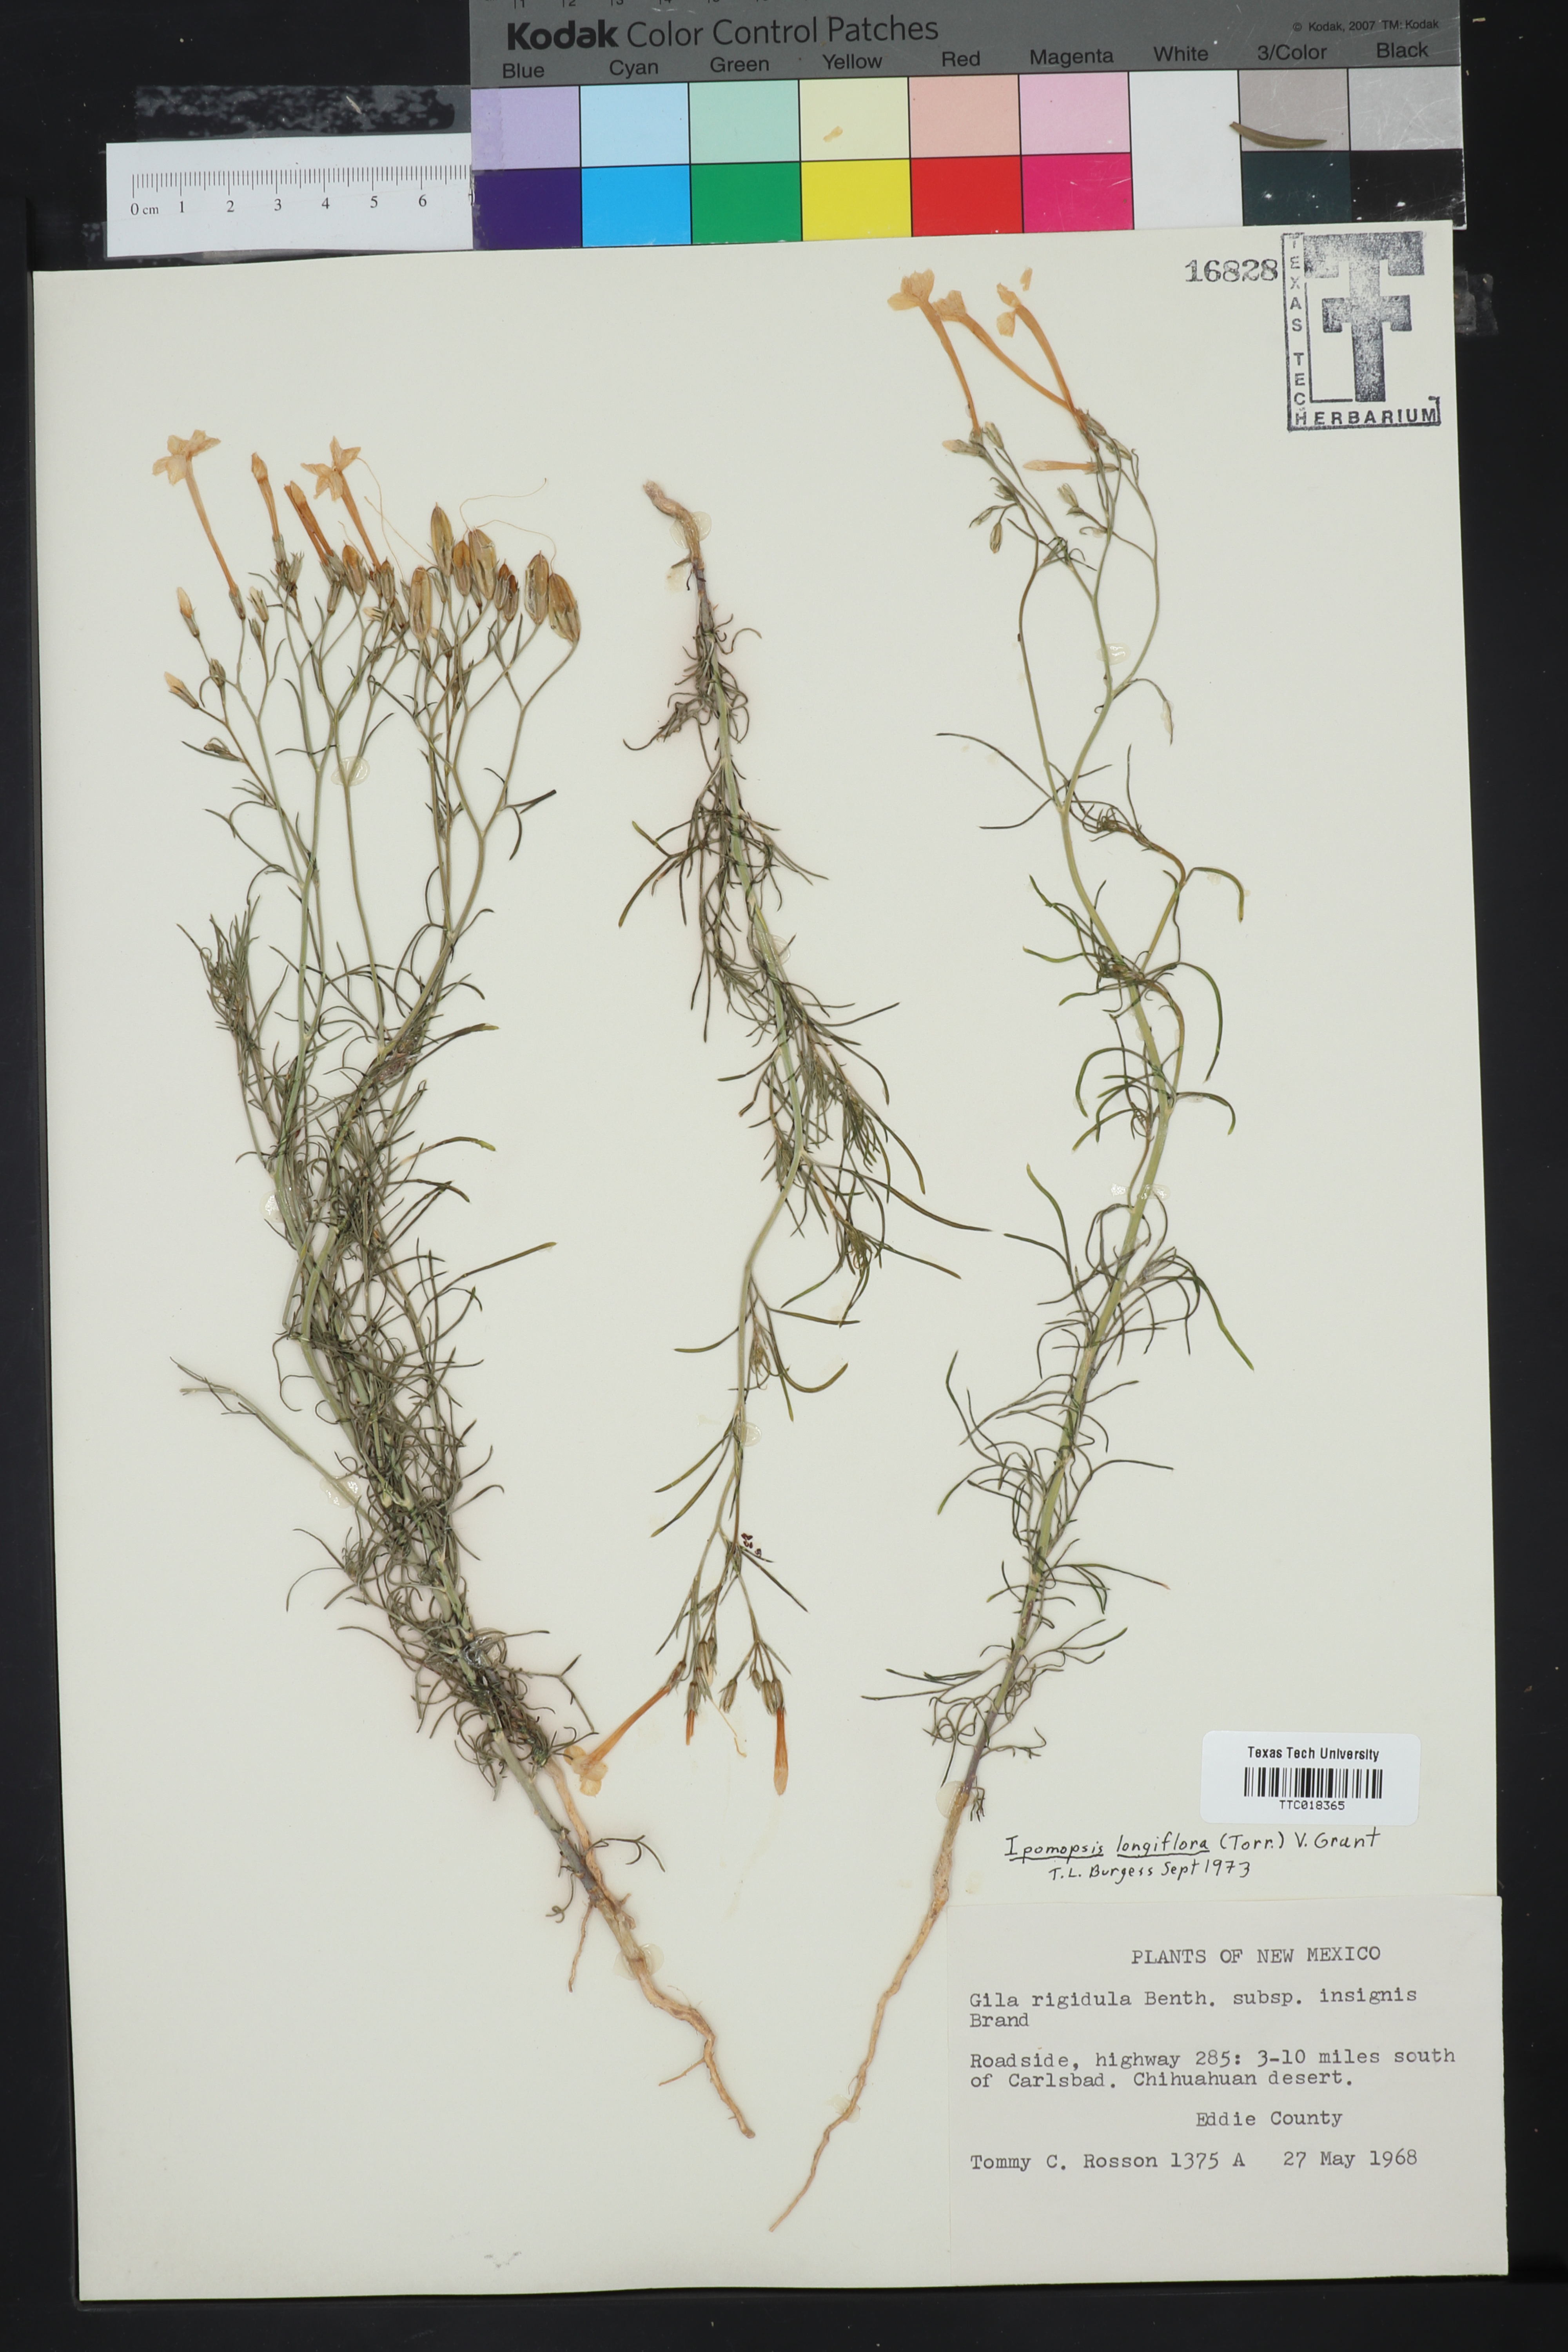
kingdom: Plantae
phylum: Tracheophyta
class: Magnoliopsida
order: Ericales
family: Polemoniaceae
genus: Ipomopsis
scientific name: Ipomopsis longiflora
